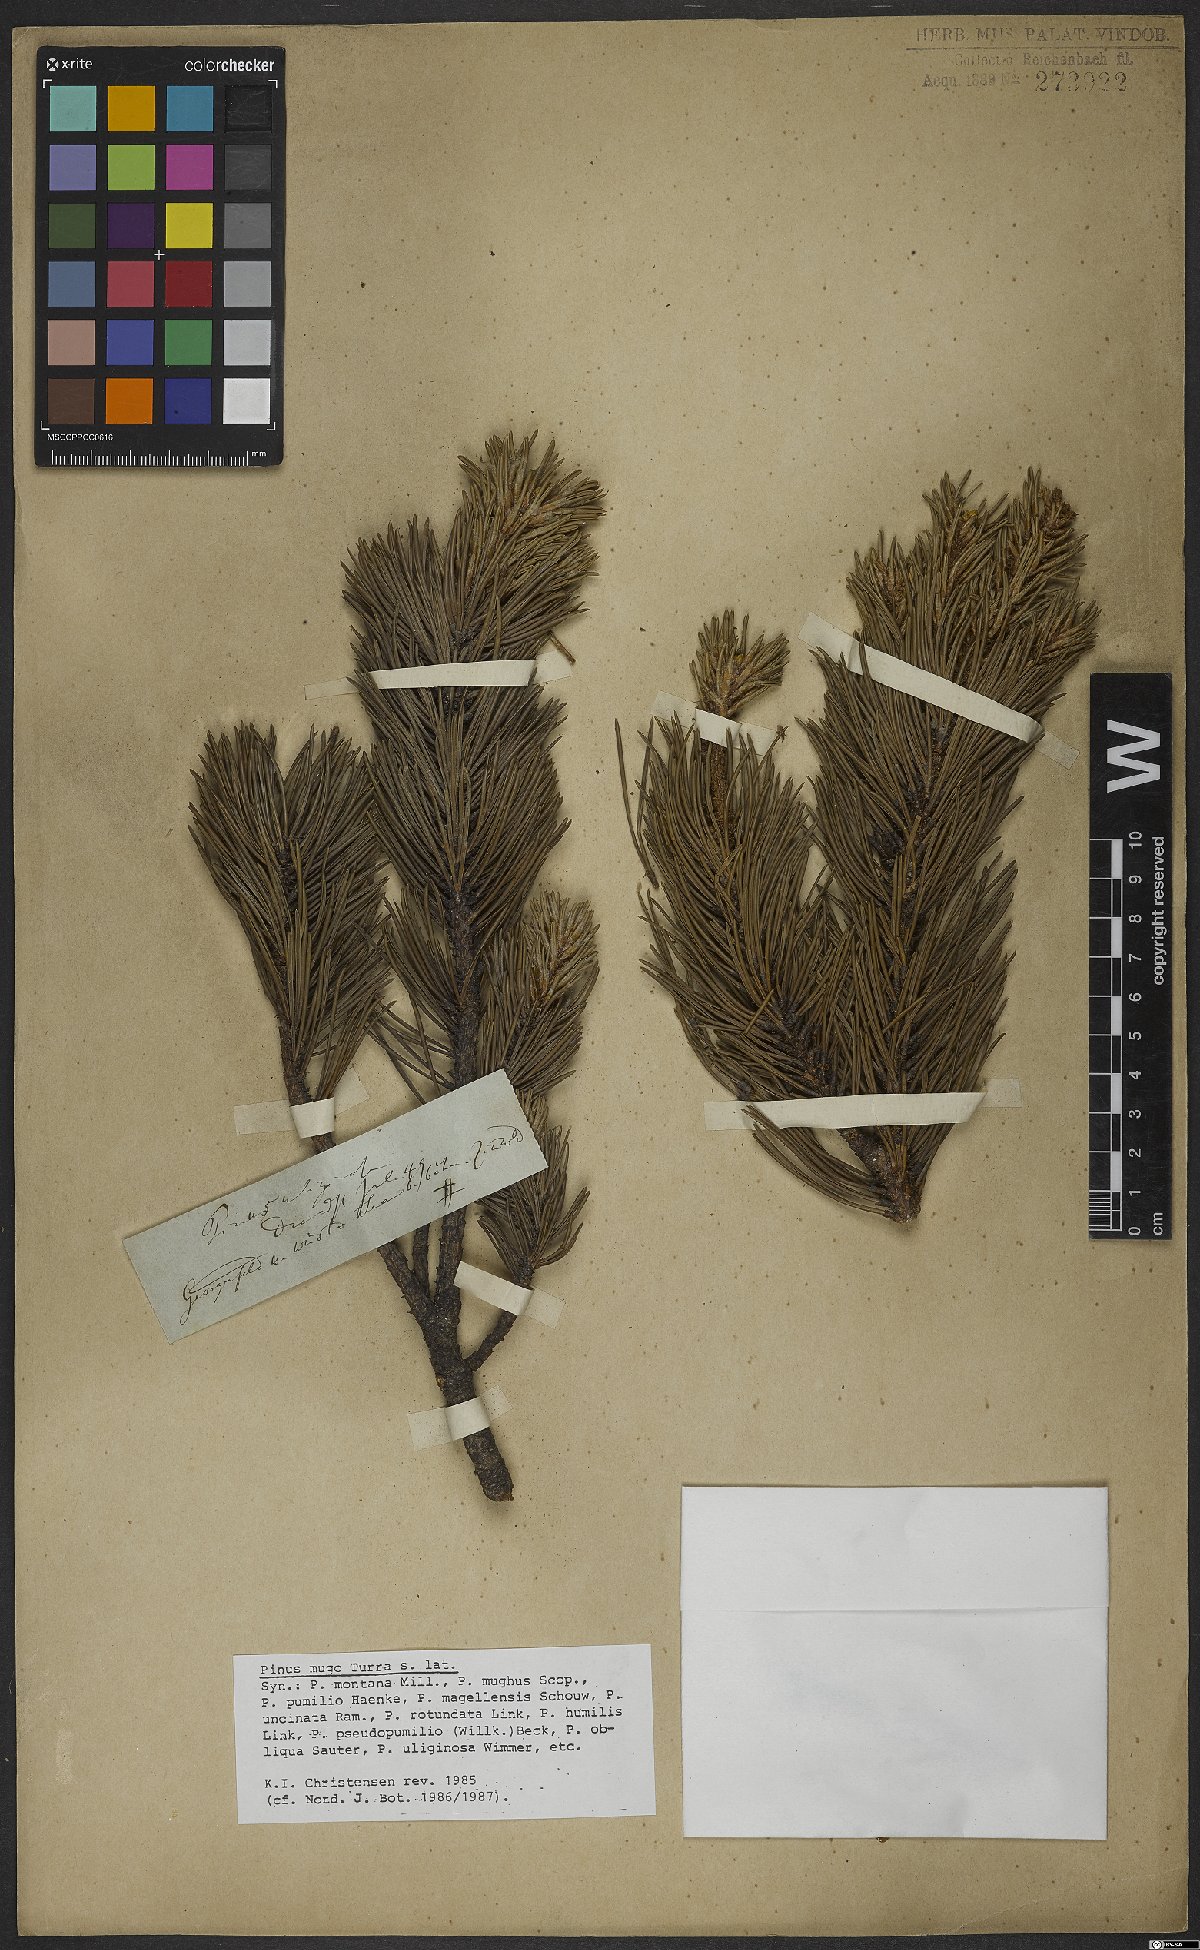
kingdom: Plantae
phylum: Tracheophyta
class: Pinopsida
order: Pinales
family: Pinaceae
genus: Pinus
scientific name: Pinus mugo
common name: Mugo pine
